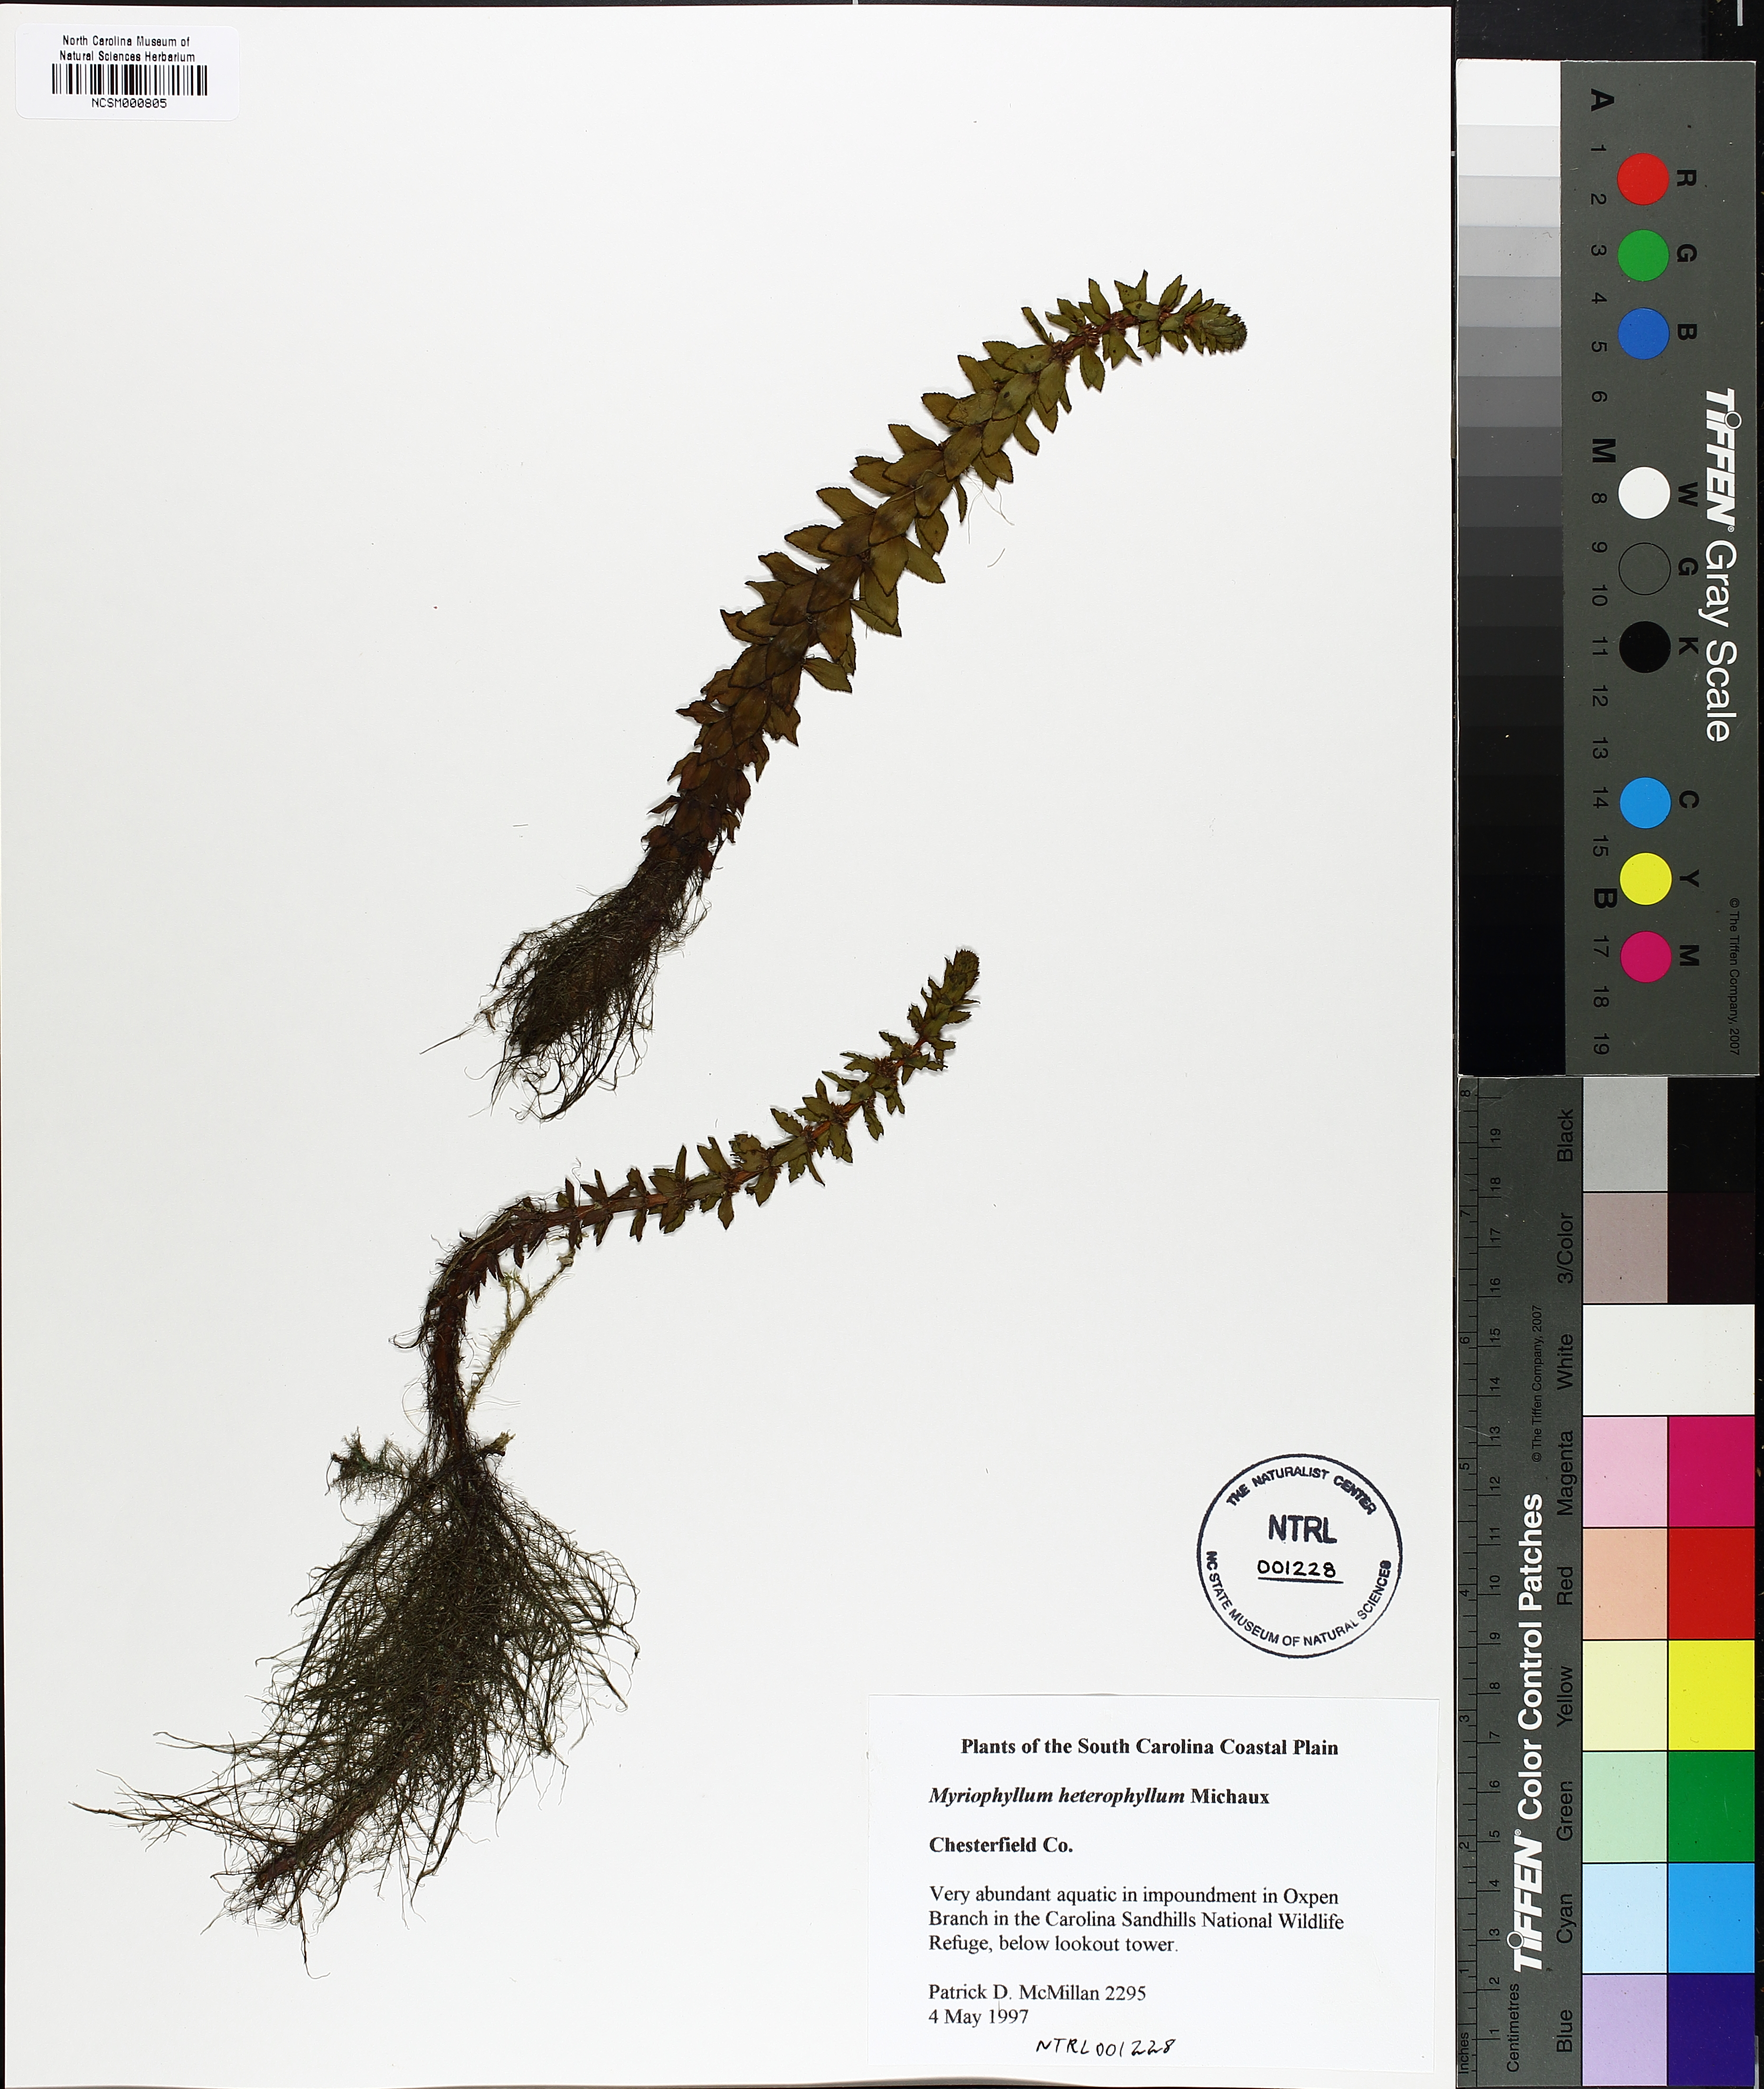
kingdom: Plantae
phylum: Tracheophyta
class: Magnoliopsida
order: Saxifragales
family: Haloragaceae
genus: Myriophyllum
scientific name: Myriophyllum heterophyllum
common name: Variable watermilfoil
